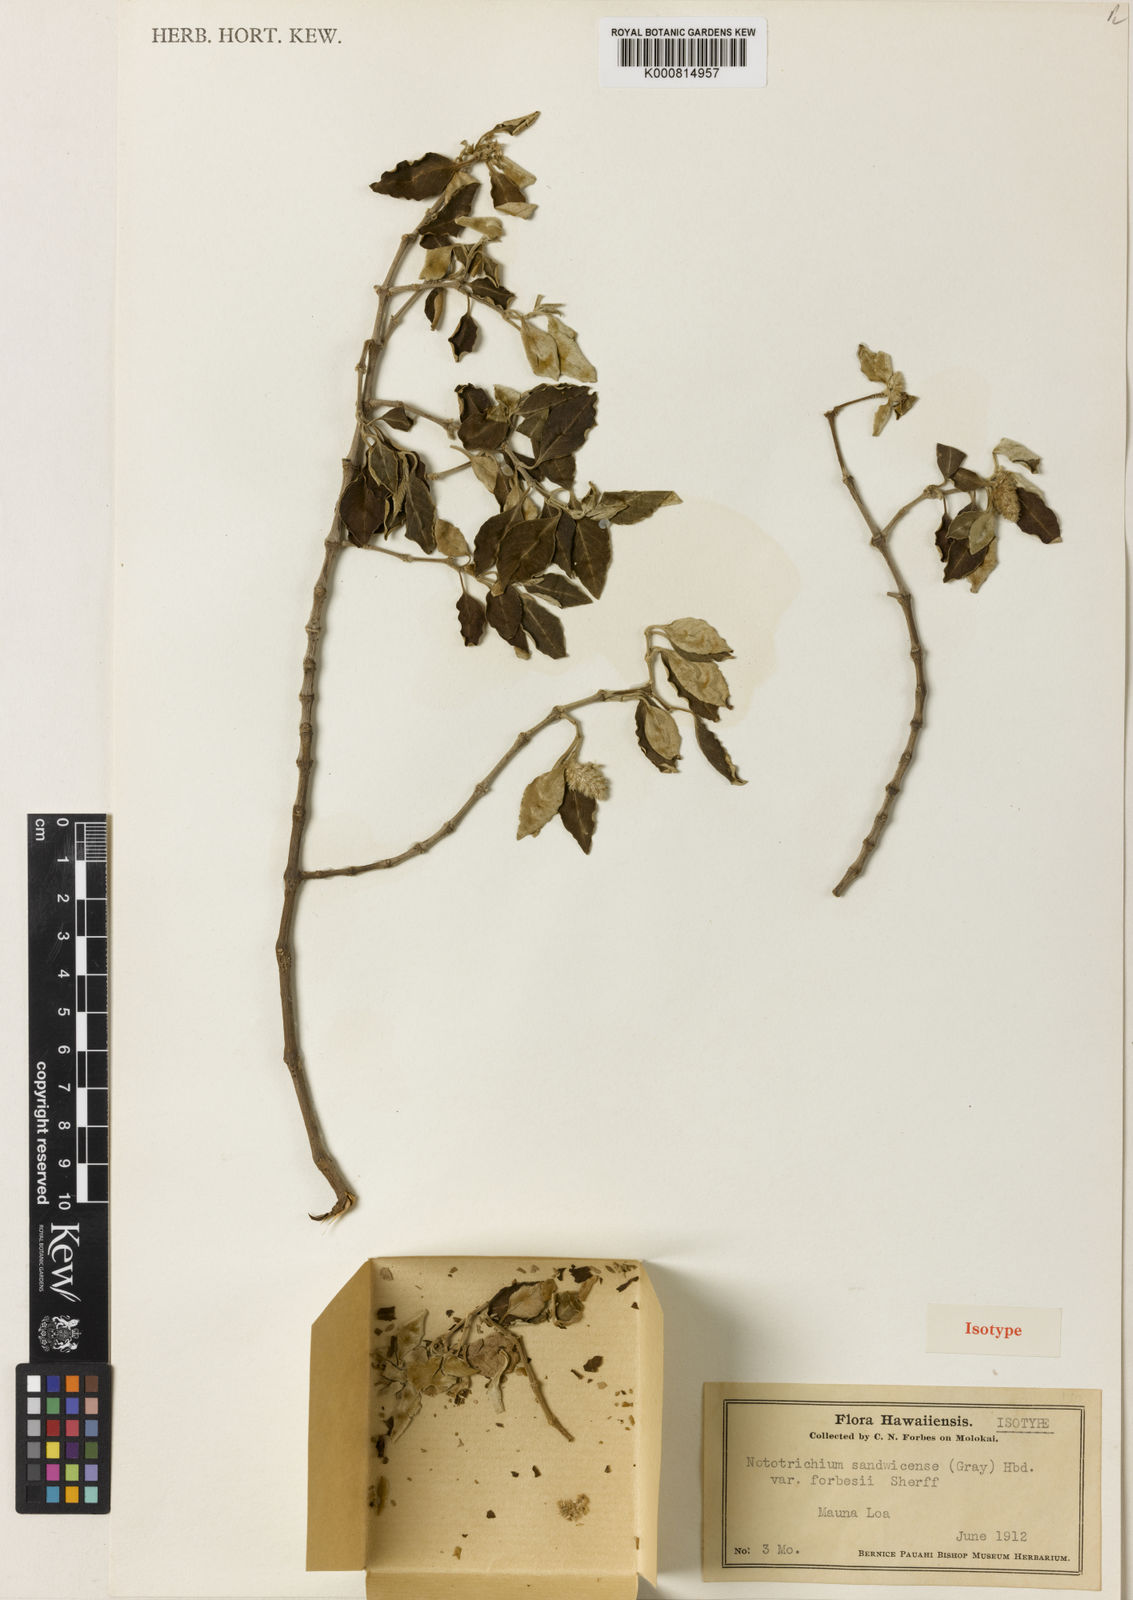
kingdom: Plantae
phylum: Tracheophyta
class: Magnoliopsida
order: Caryophyllales
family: Amaranthaceae
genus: Nototrichium
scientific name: Nototrichium
